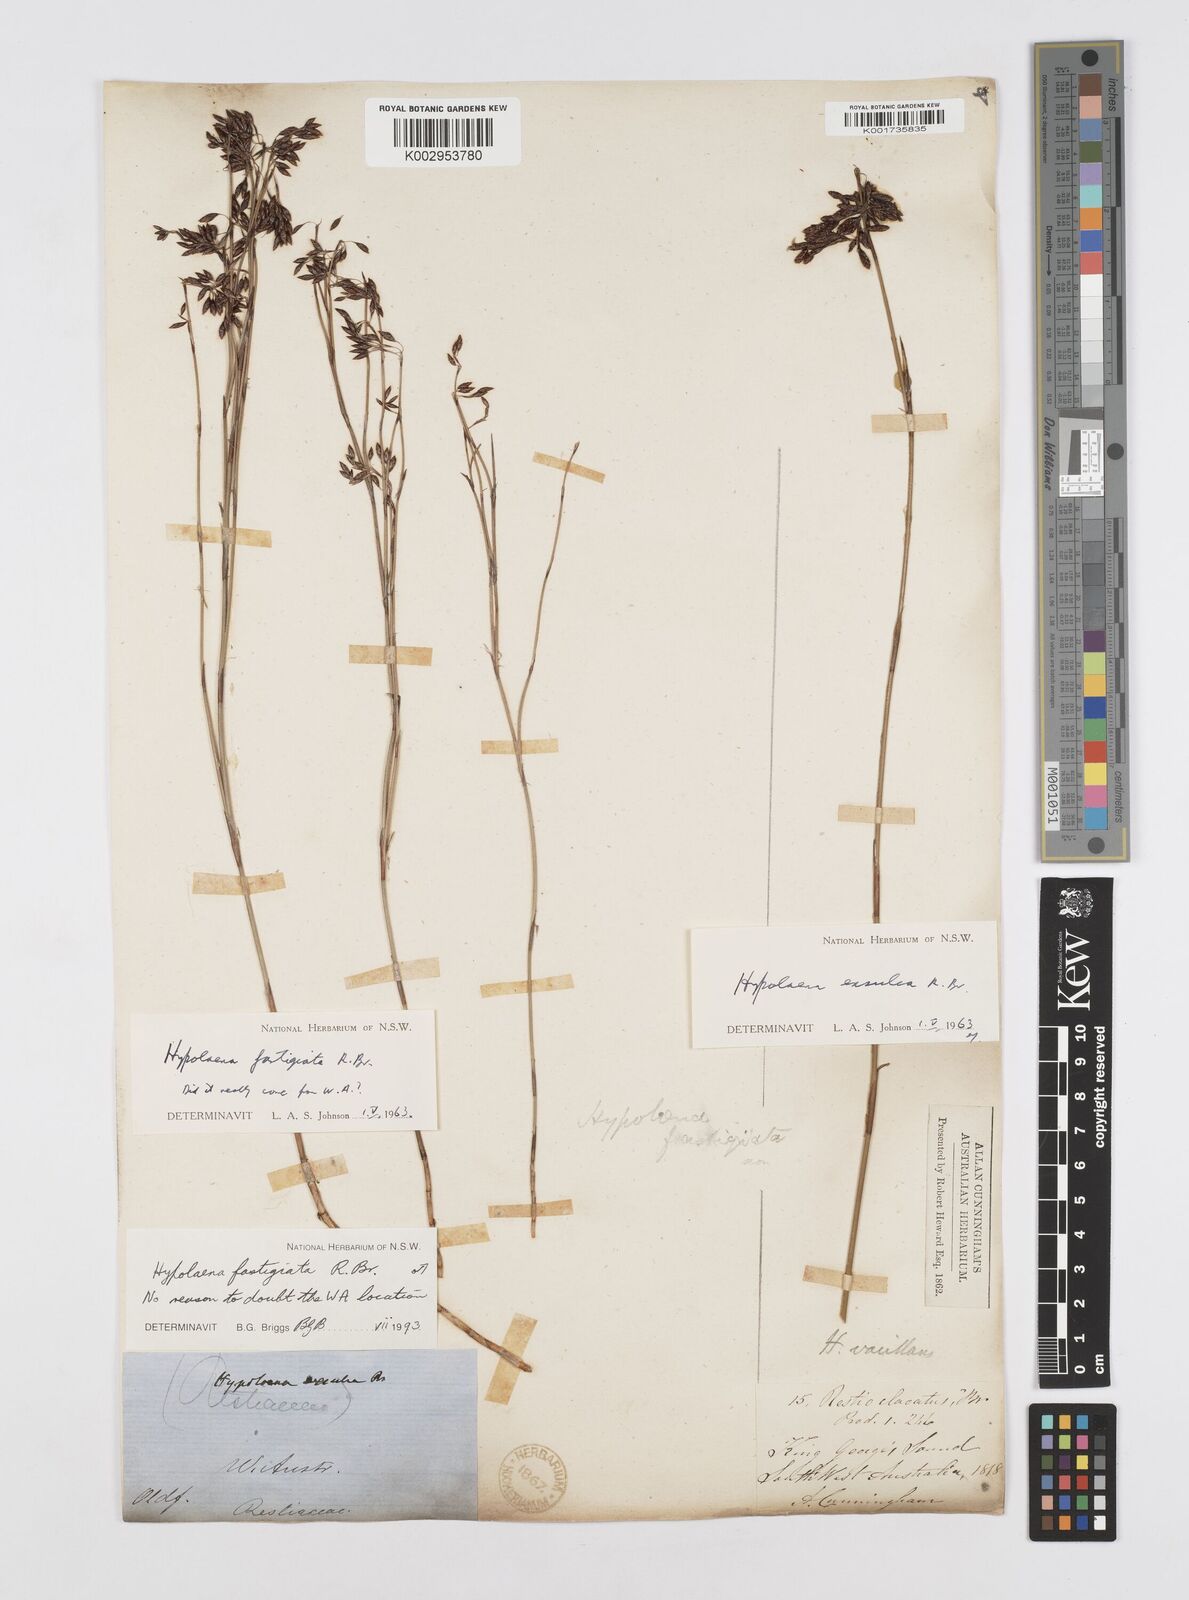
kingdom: Plantae
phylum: Tracheophyta
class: Liliopsida
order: Poales
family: Restionaceae
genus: Hypolaena
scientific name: Hypolaena fastigiata
